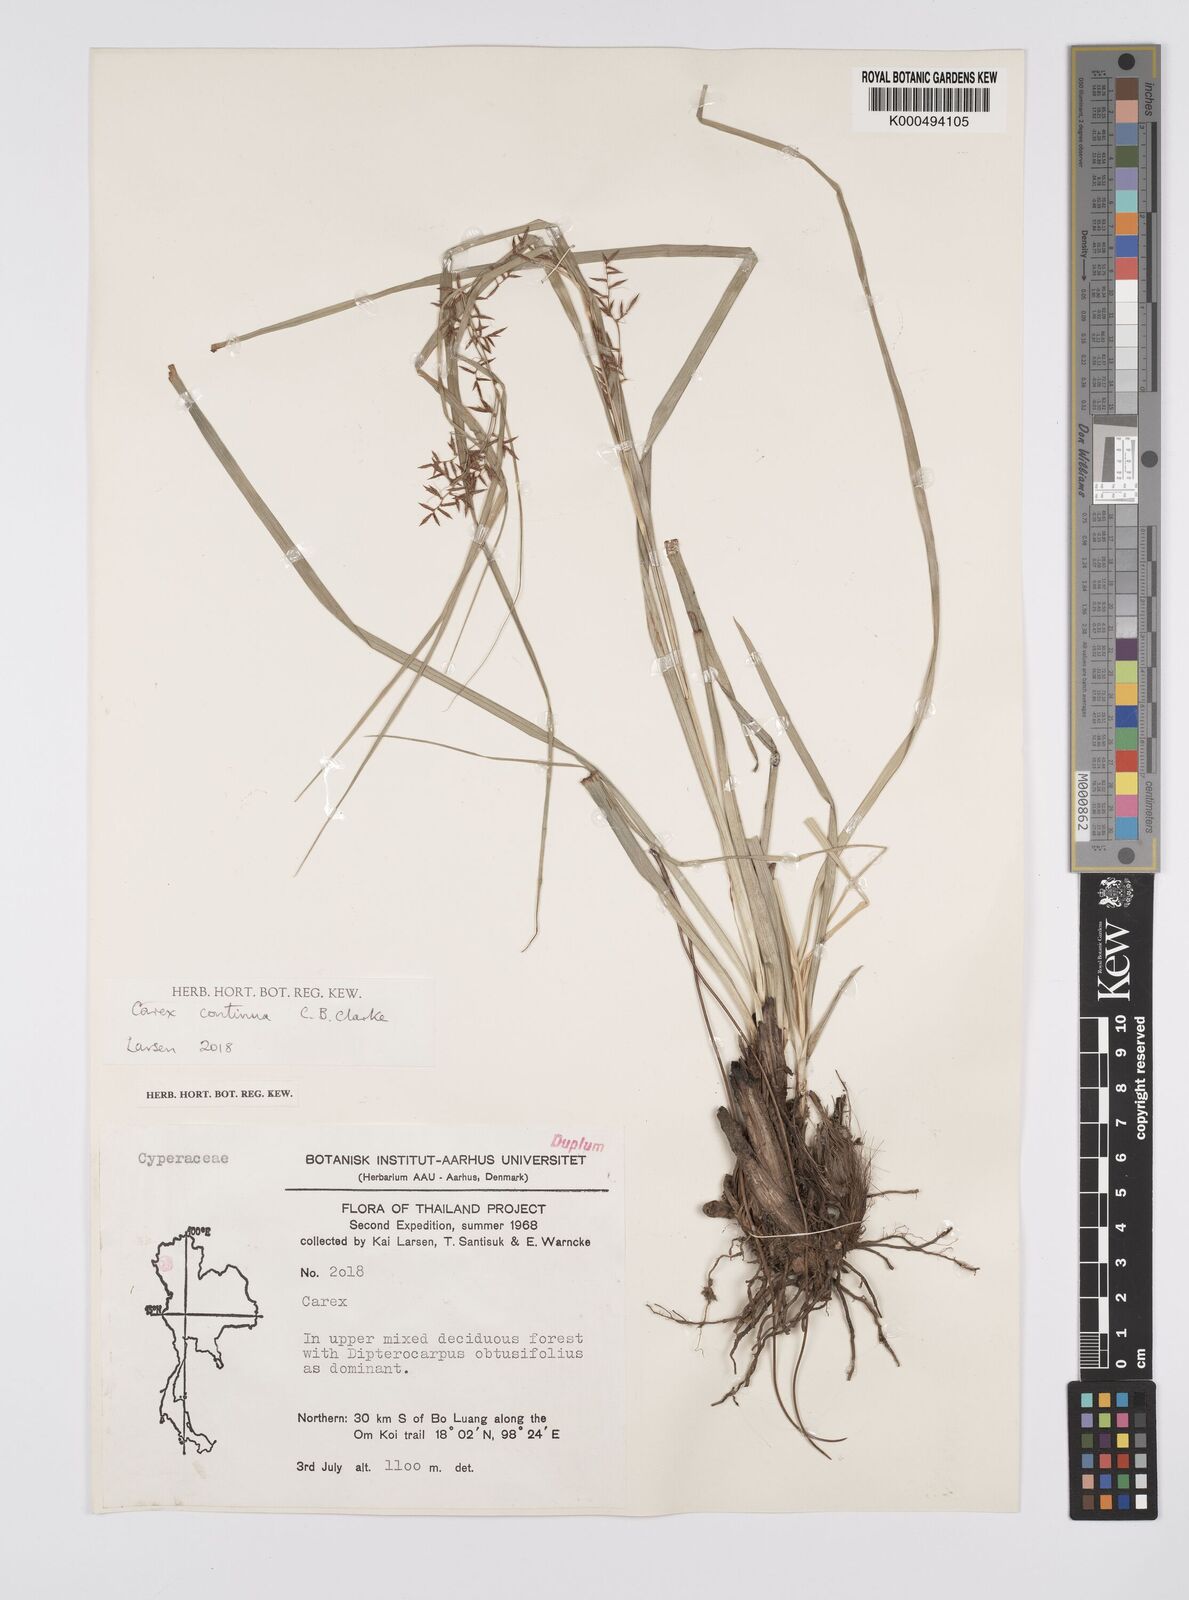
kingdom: Plantae
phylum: Tracheophyta
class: Liliopsida
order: Poales
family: Cyperaceae
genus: Carex
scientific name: Carex continua
